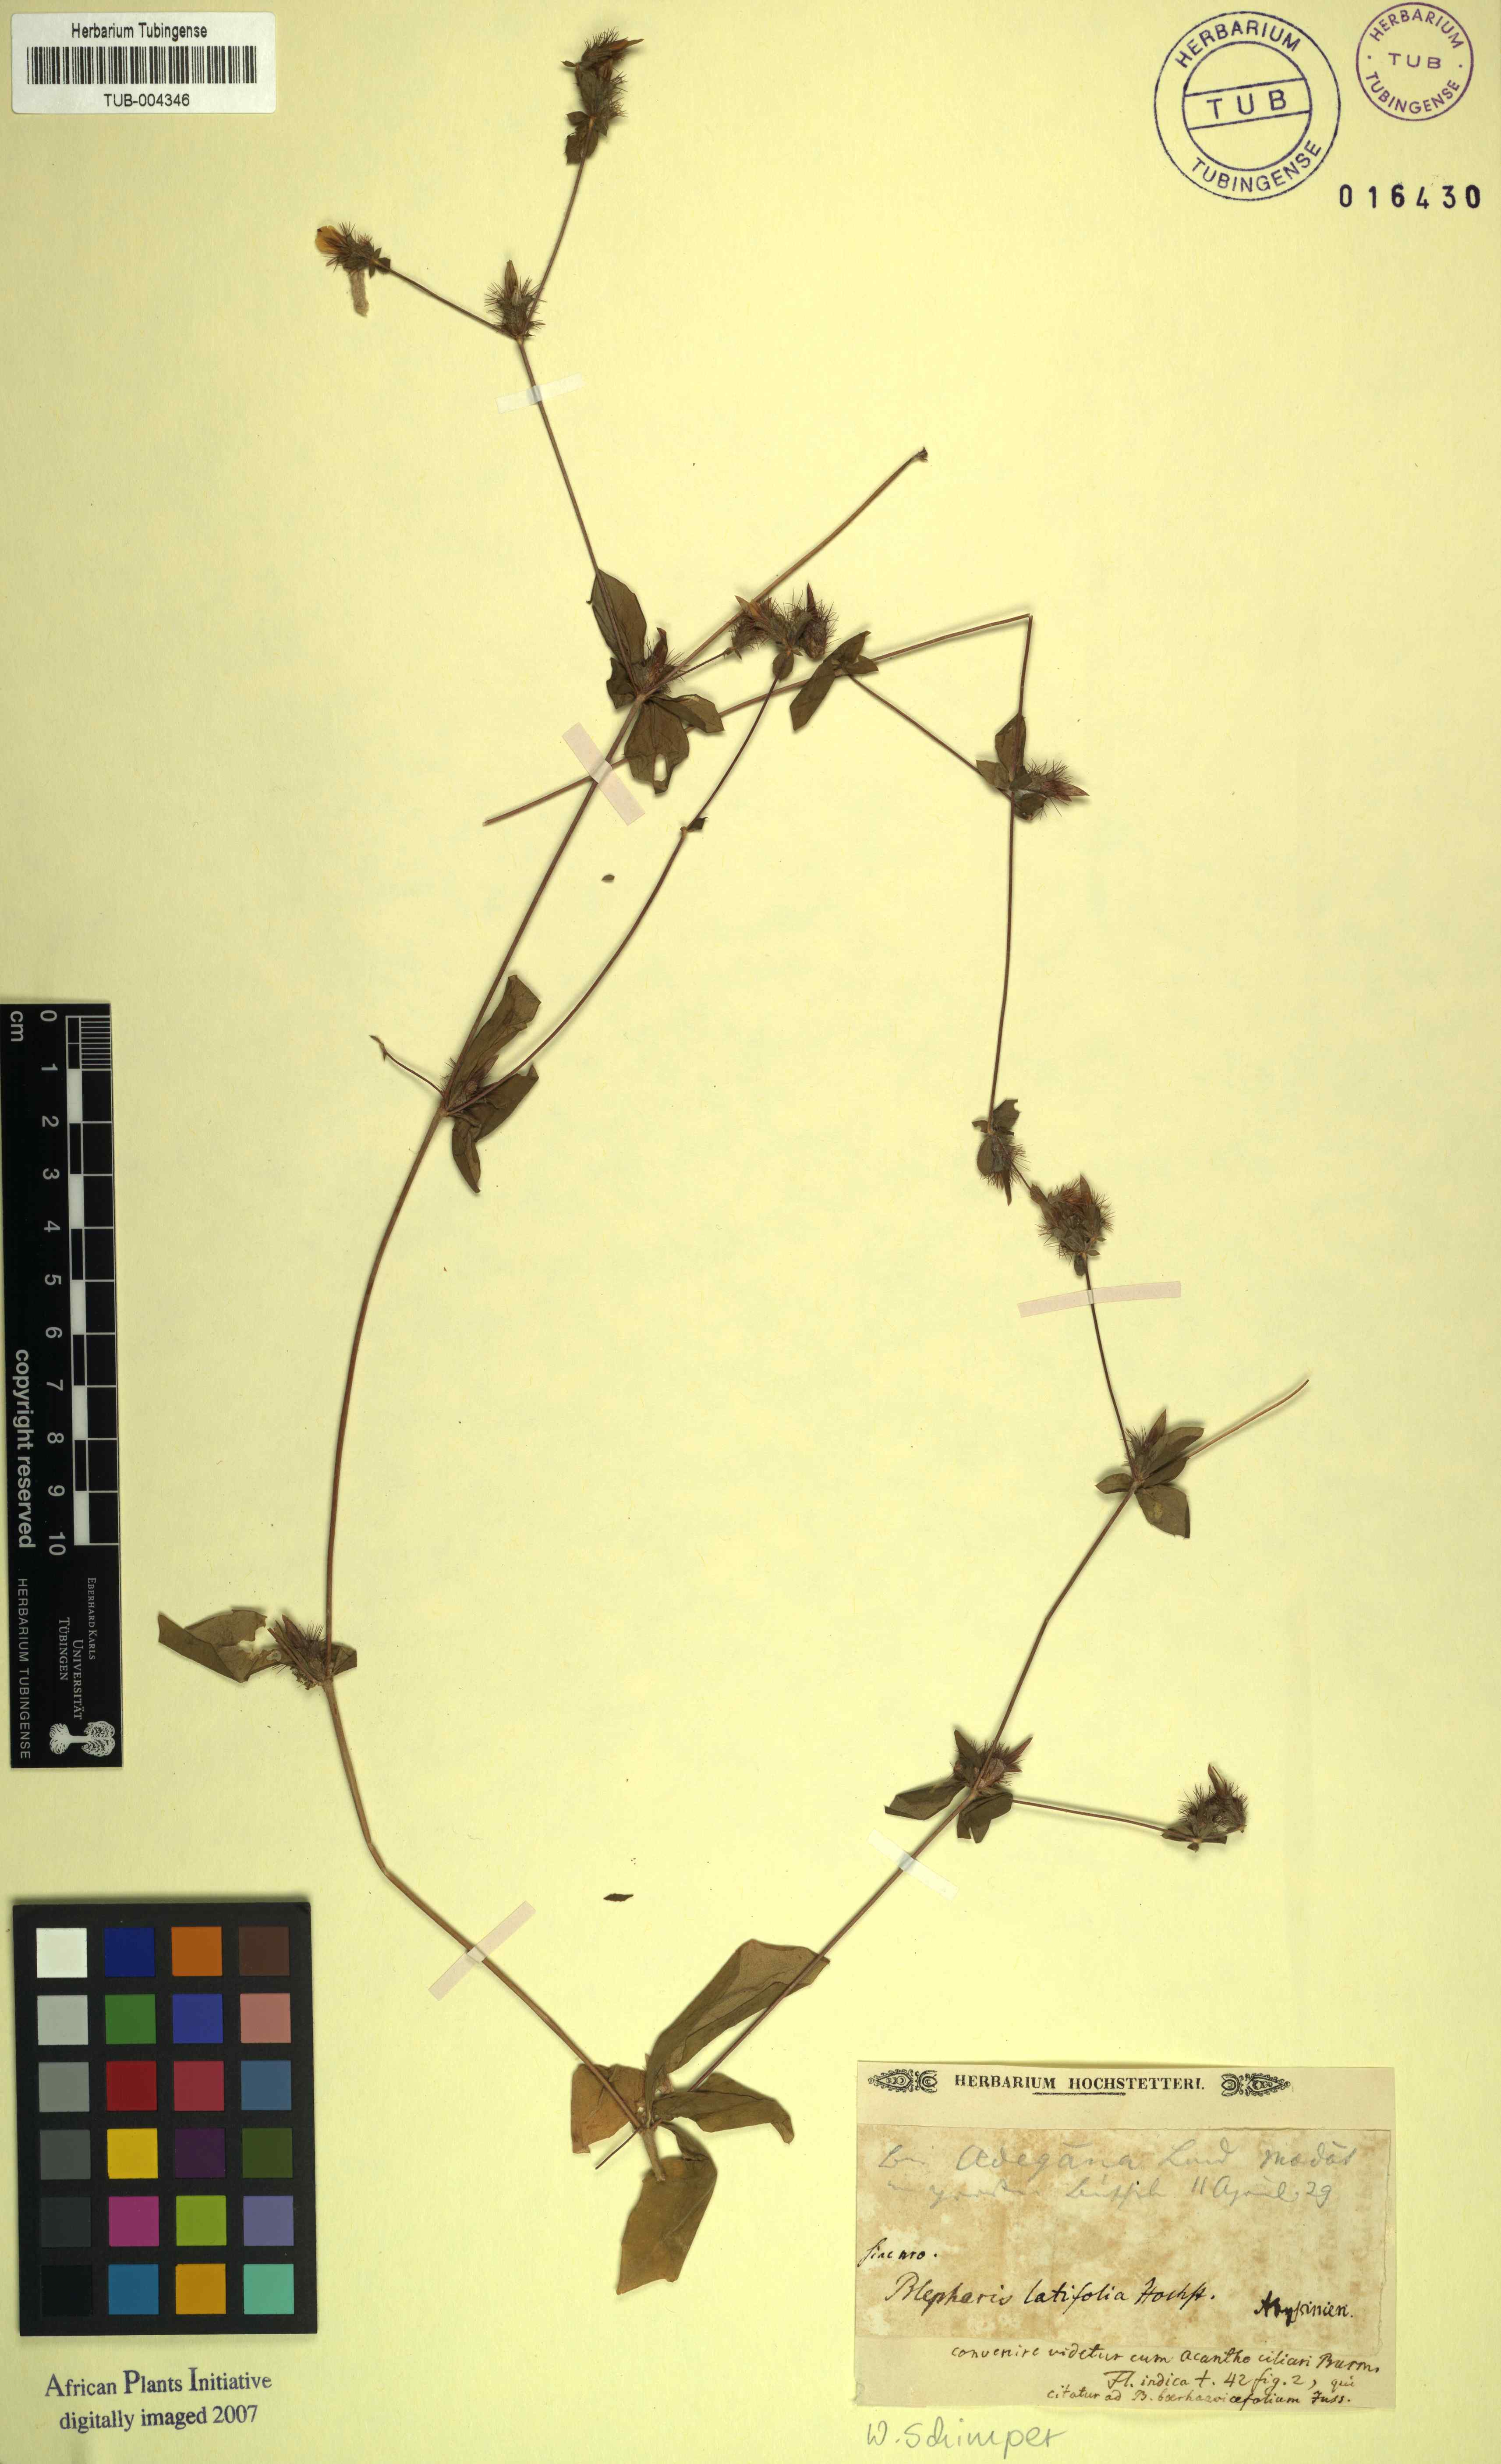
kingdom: Plantae
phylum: Tracheophyta
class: Magnoliopsida
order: Lamiales
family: Acanthaceae
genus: Blepharis
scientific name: Blepharis
